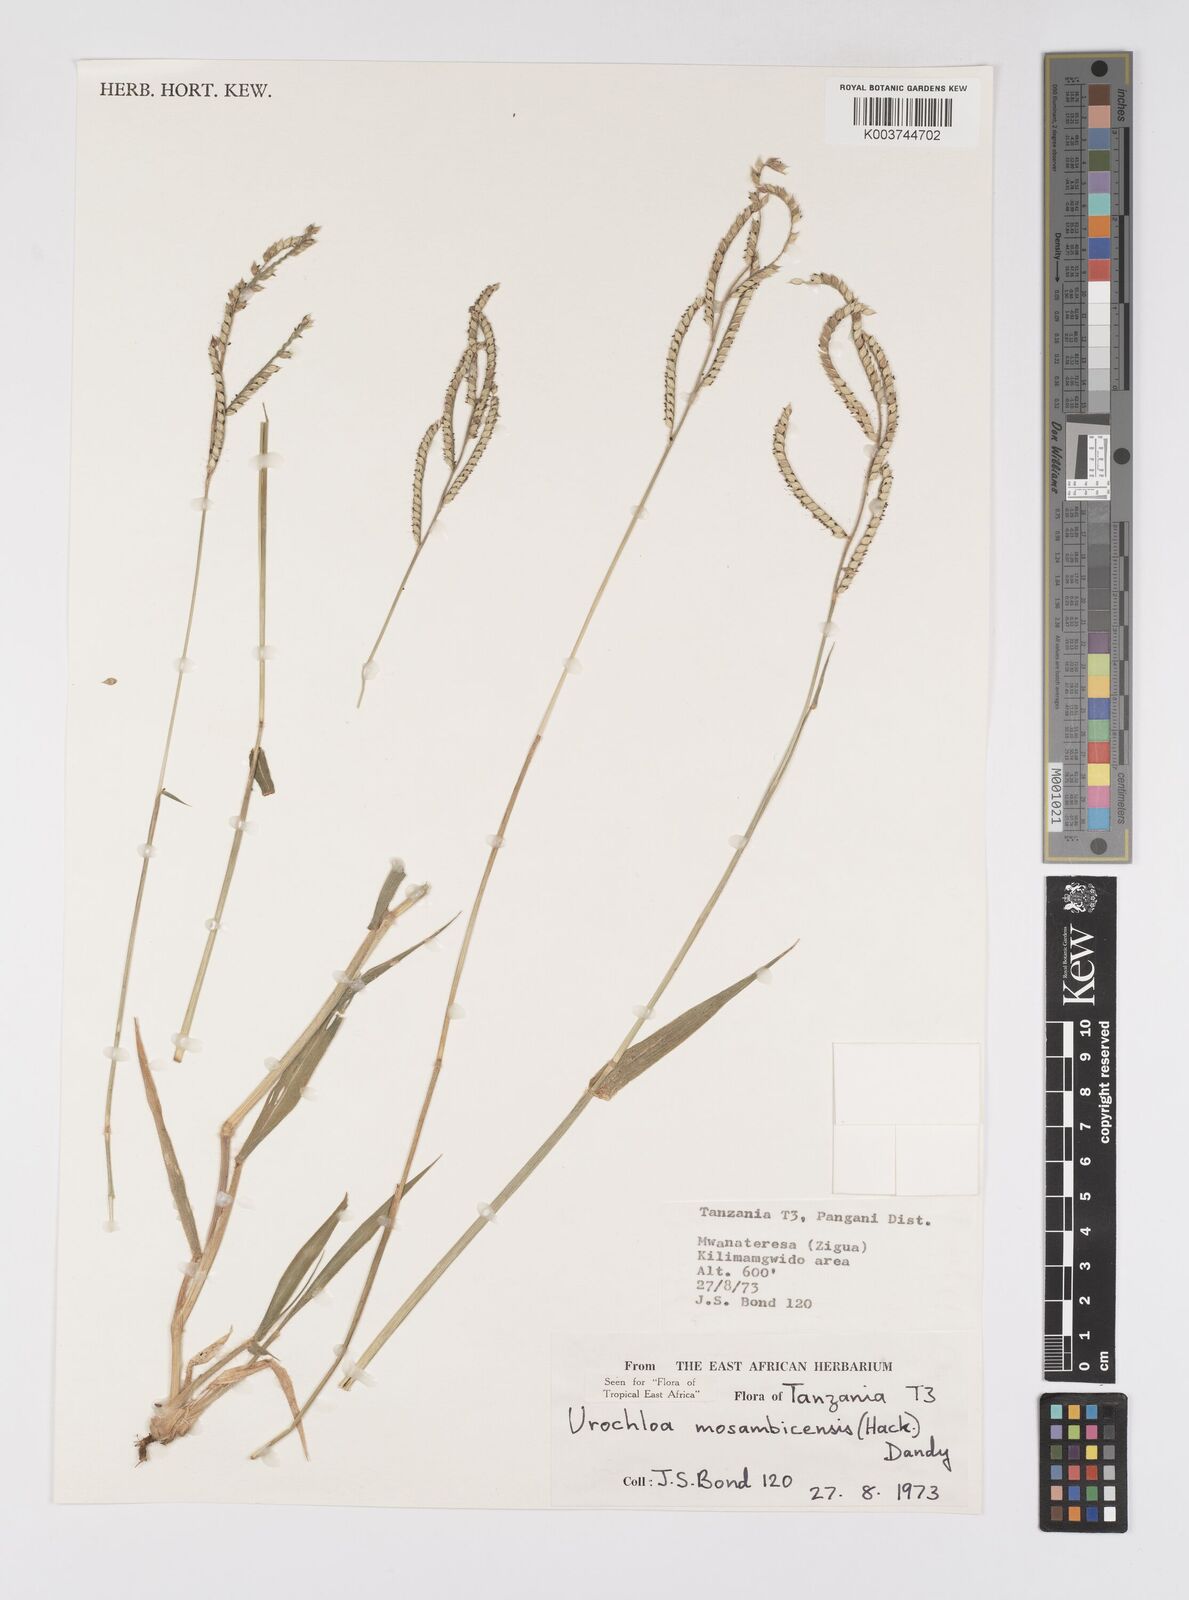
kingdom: Plantae
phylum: Tracheophyta
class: Liliopsida
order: Poales
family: Poaceae
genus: Urochloa
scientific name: Urochloa trichopus
